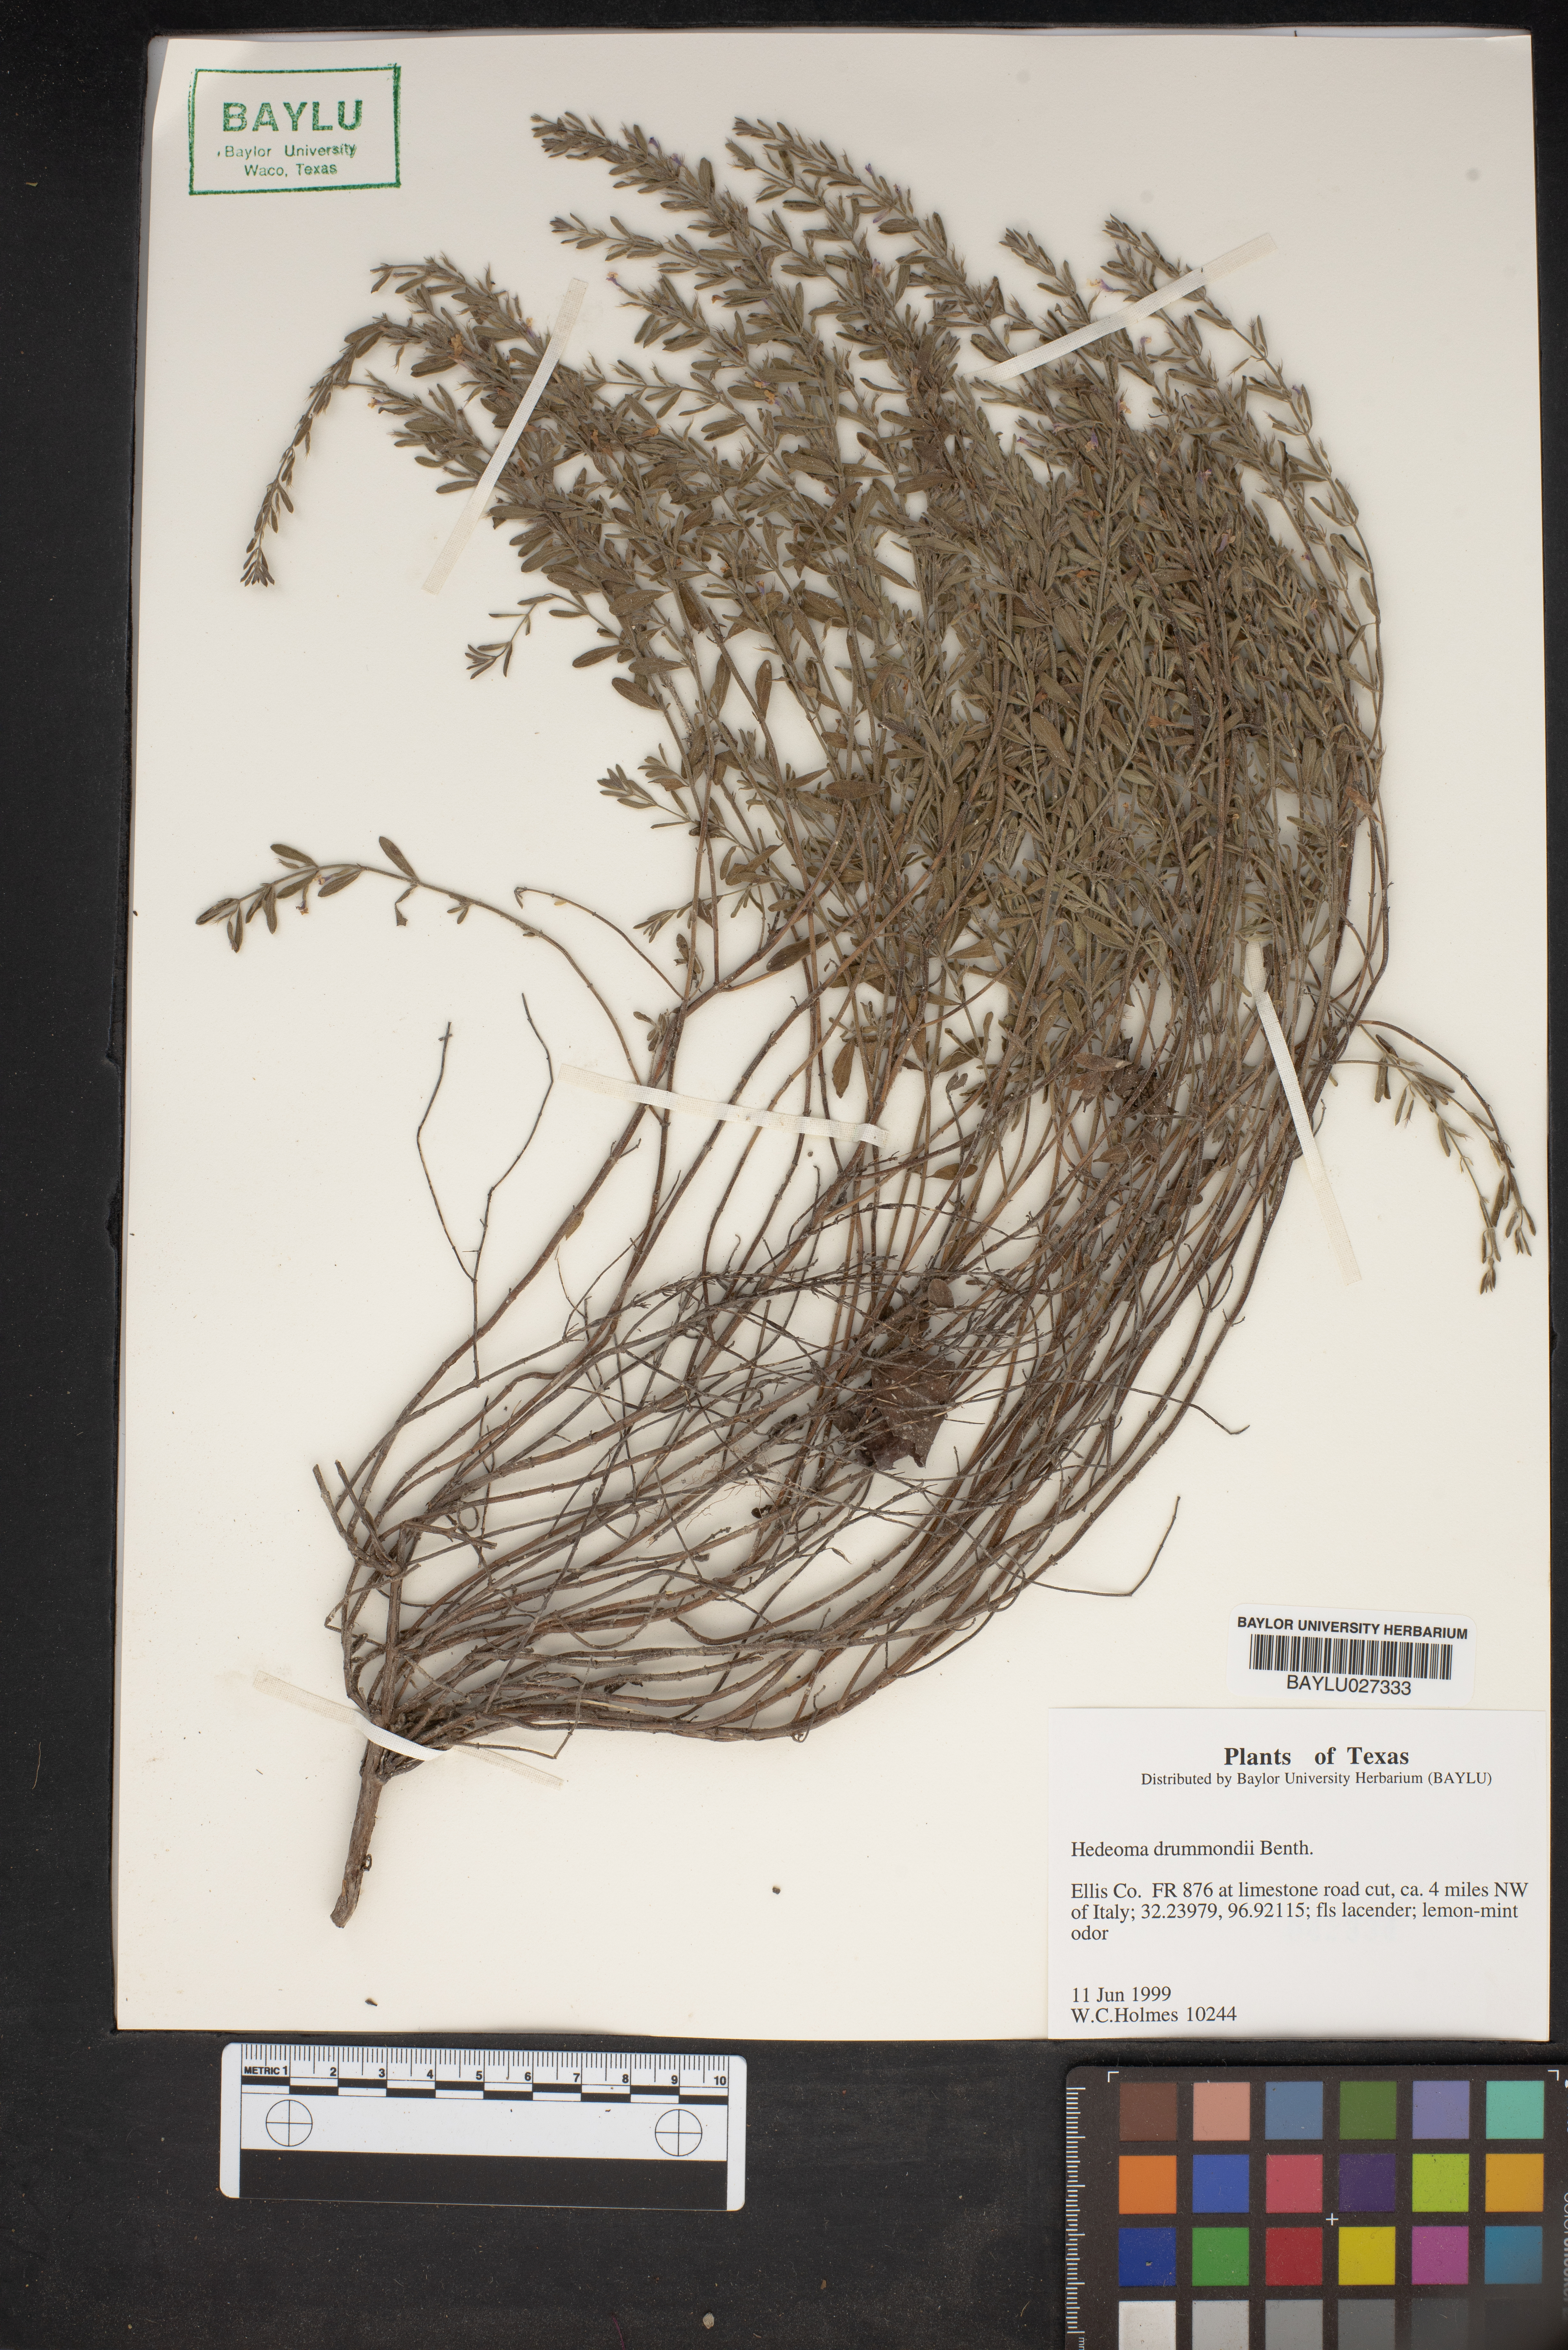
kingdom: Plantae
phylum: Tracheophyta
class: Magnoliopsida
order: Lamiales
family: Lamiaceae
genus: Hedeoma
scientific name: Hedeoma drummondii
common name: New mexico pennyroyal
